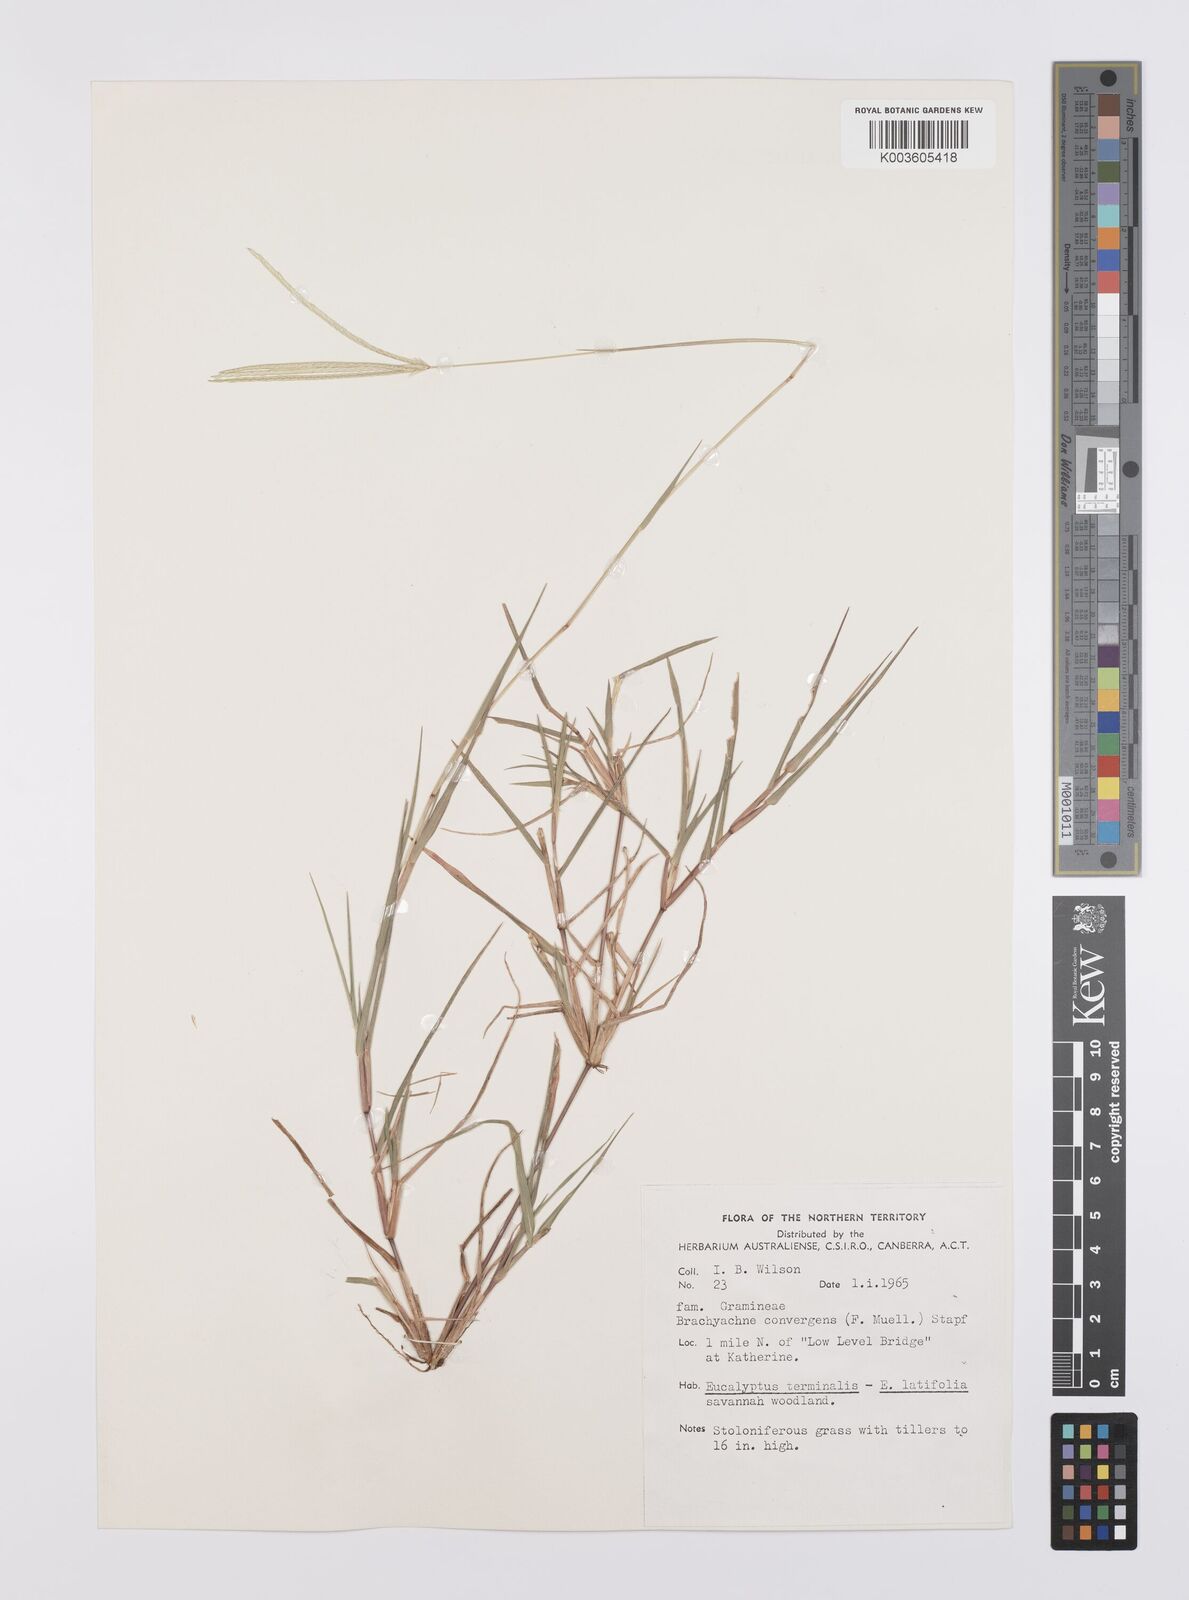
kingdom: Plantae
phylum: Tracheophyta
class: Liliopsida
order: Poales
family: Poaceae
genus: Cynodon
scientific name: Cynodon convergens
